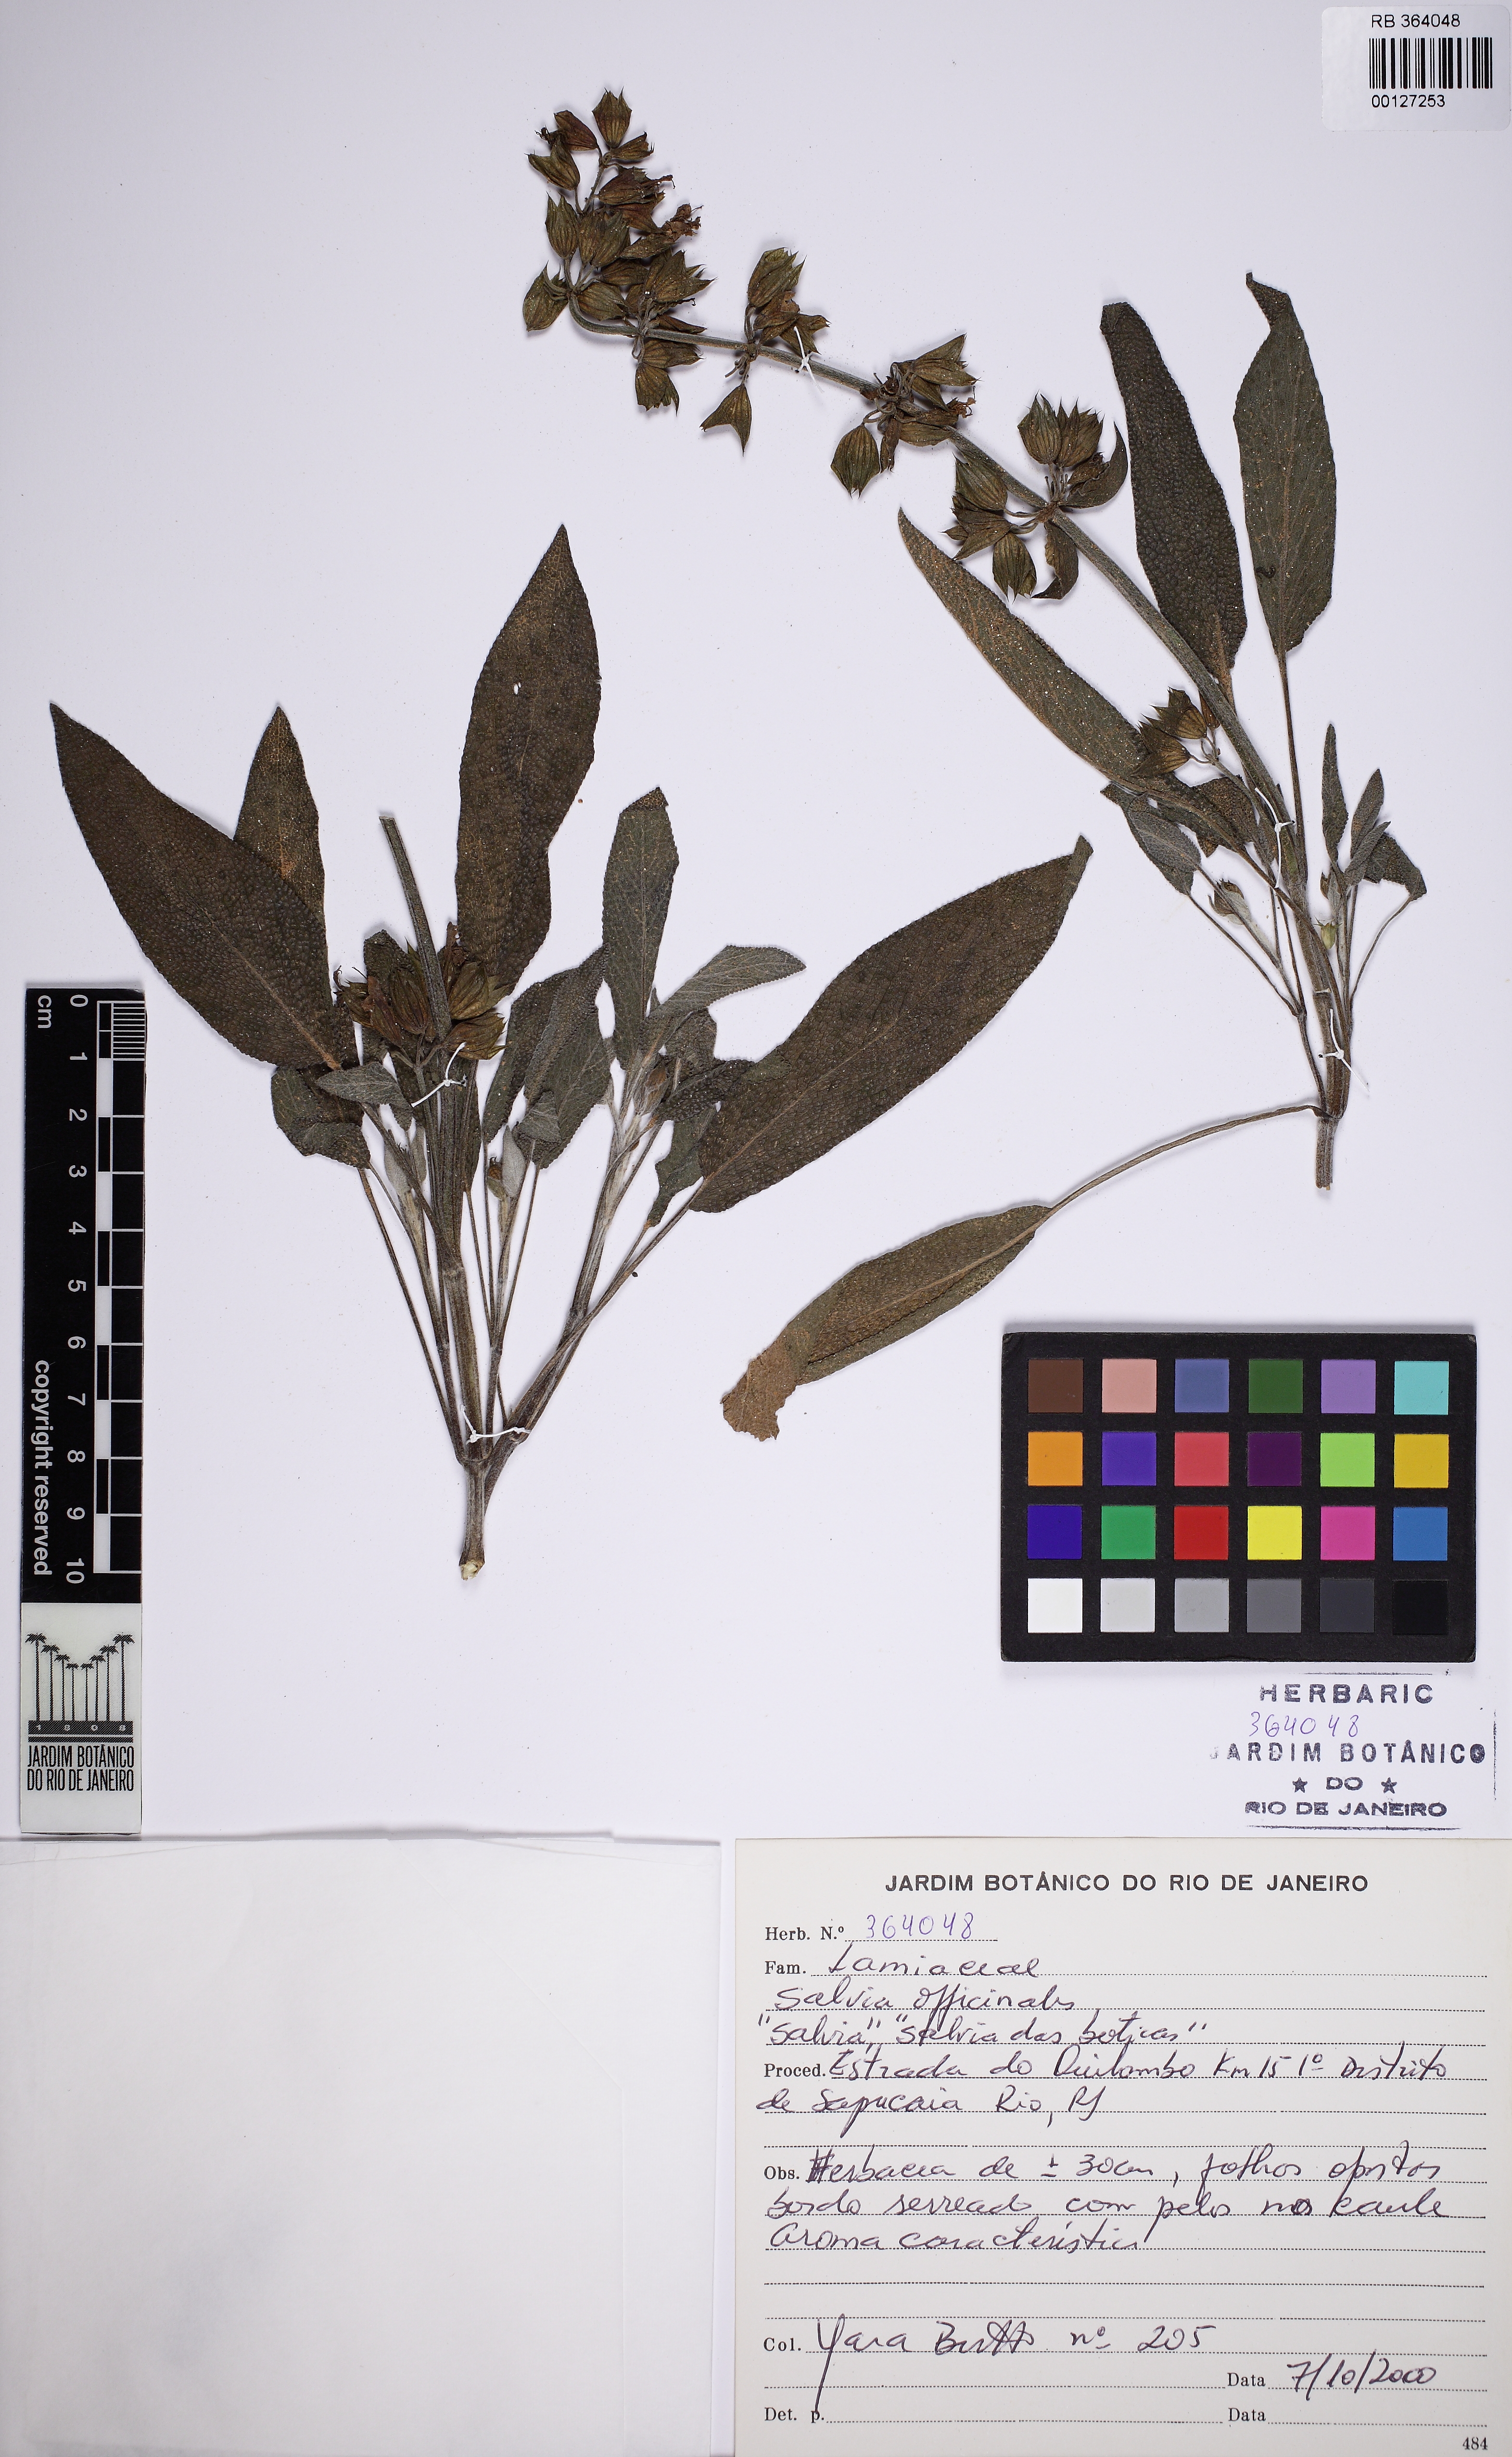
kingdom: Plantae
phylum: Tracheophyta
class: Magnoliopsida
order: Lamiales
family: Lamiaceae
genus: Salvia
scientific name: Salvia officinalis
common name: Sage
